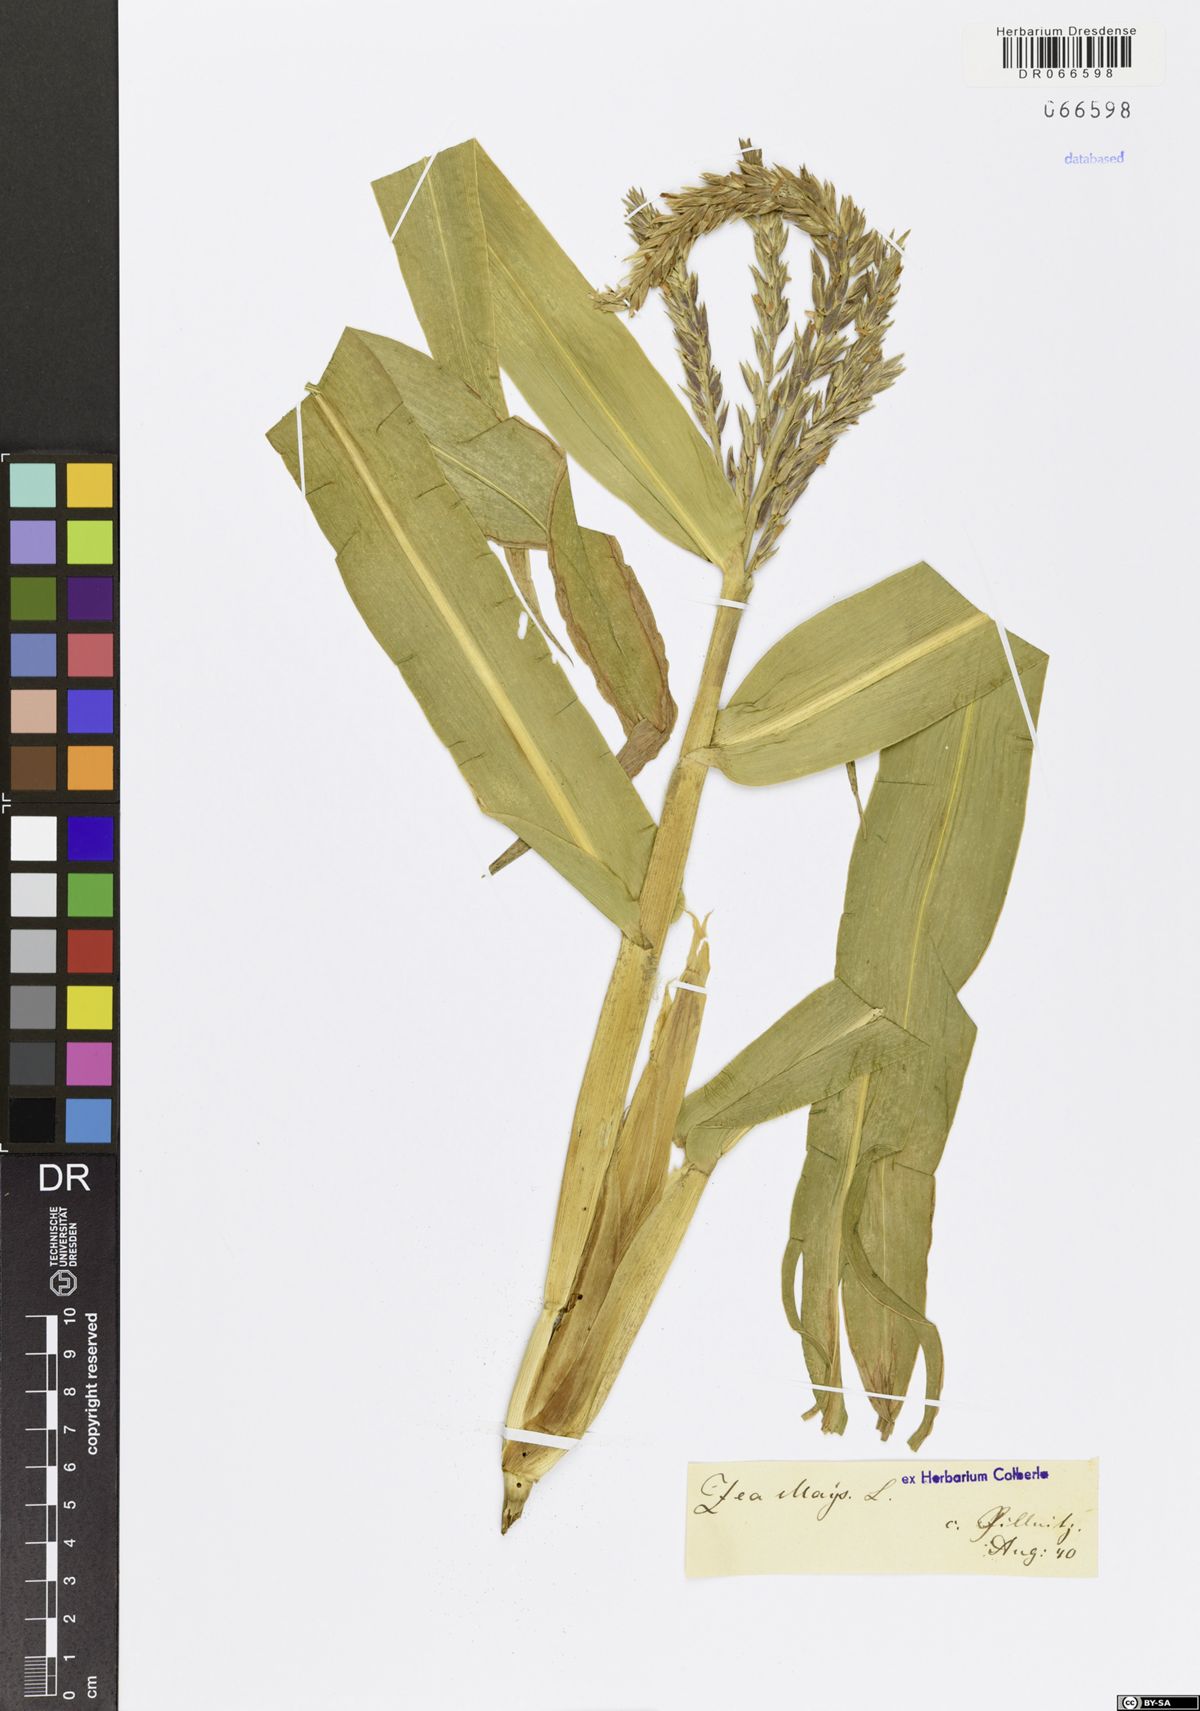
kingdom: Plantae
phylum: Tracheophyta
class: Liliopsida
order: Poales
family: Poaceae
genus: Zea
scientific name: Zea mays
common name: Maize
